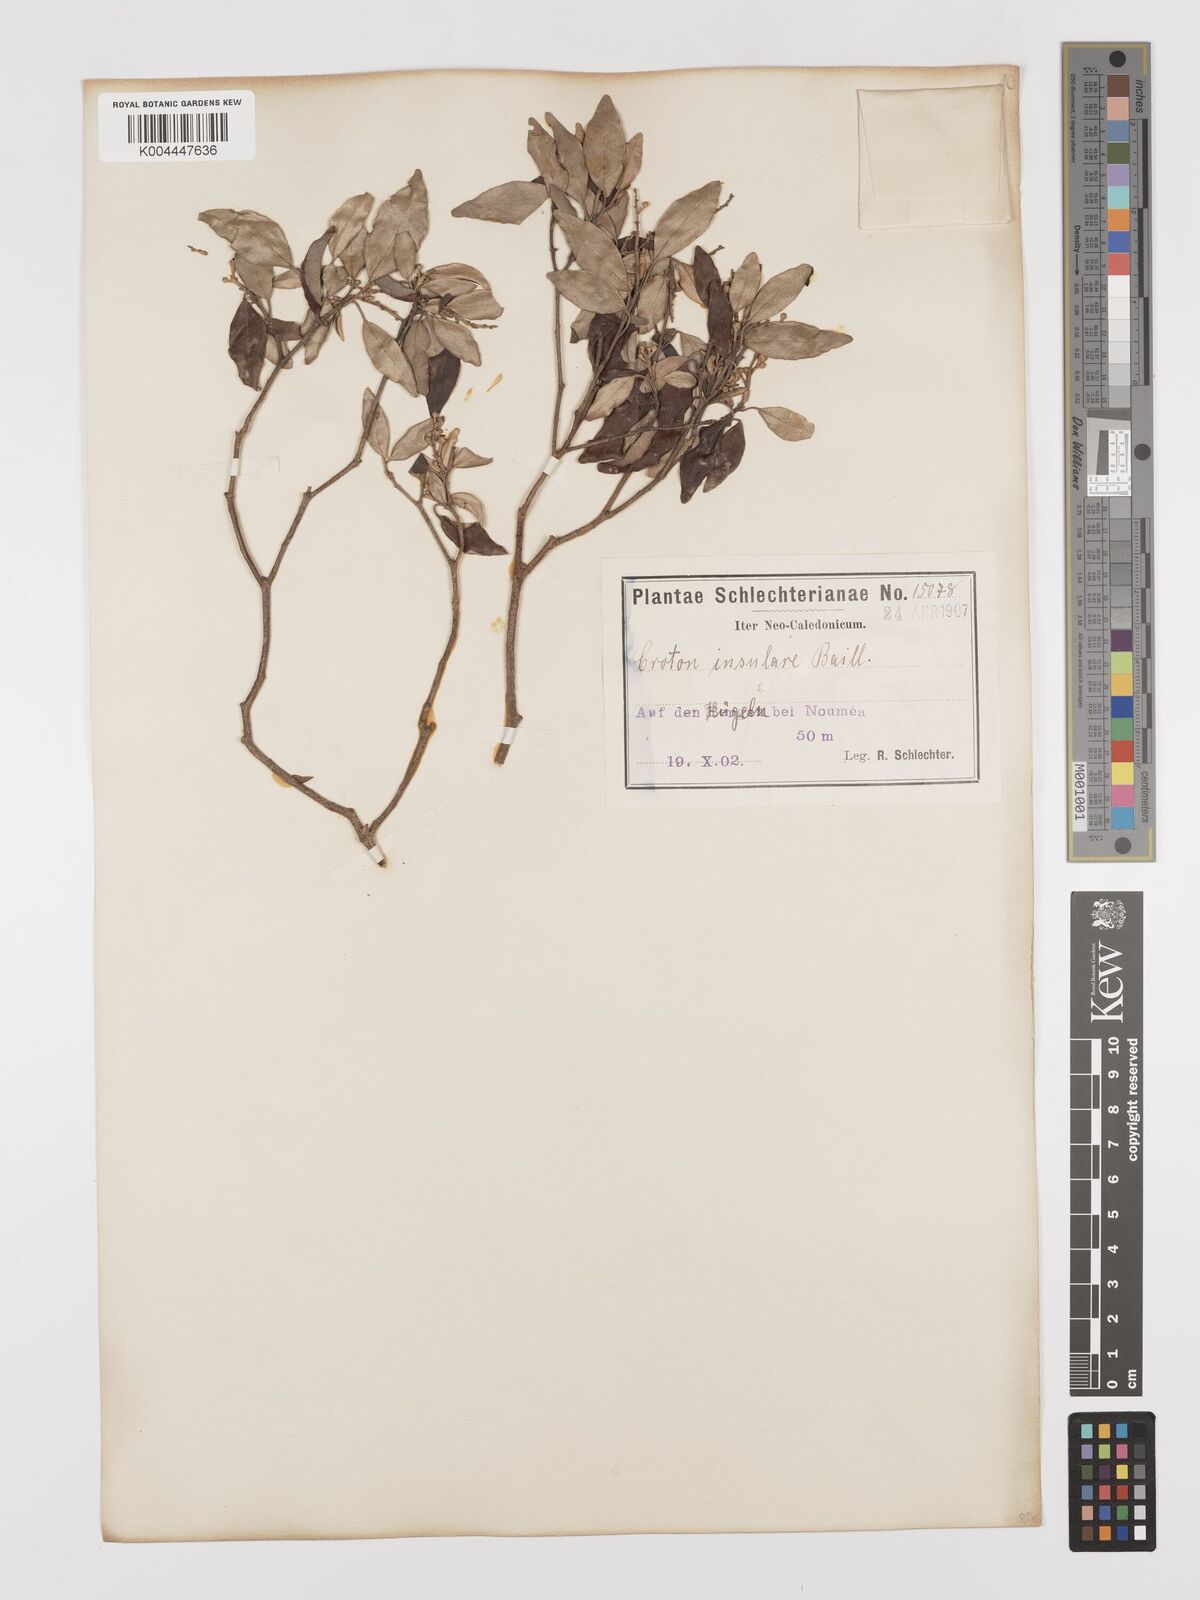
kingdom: Plantae
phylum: Tracheophyta
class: Magnoliopsida
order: Malpighiales
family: Euphorbiaceae
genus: Croton
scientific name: Croton insularis
